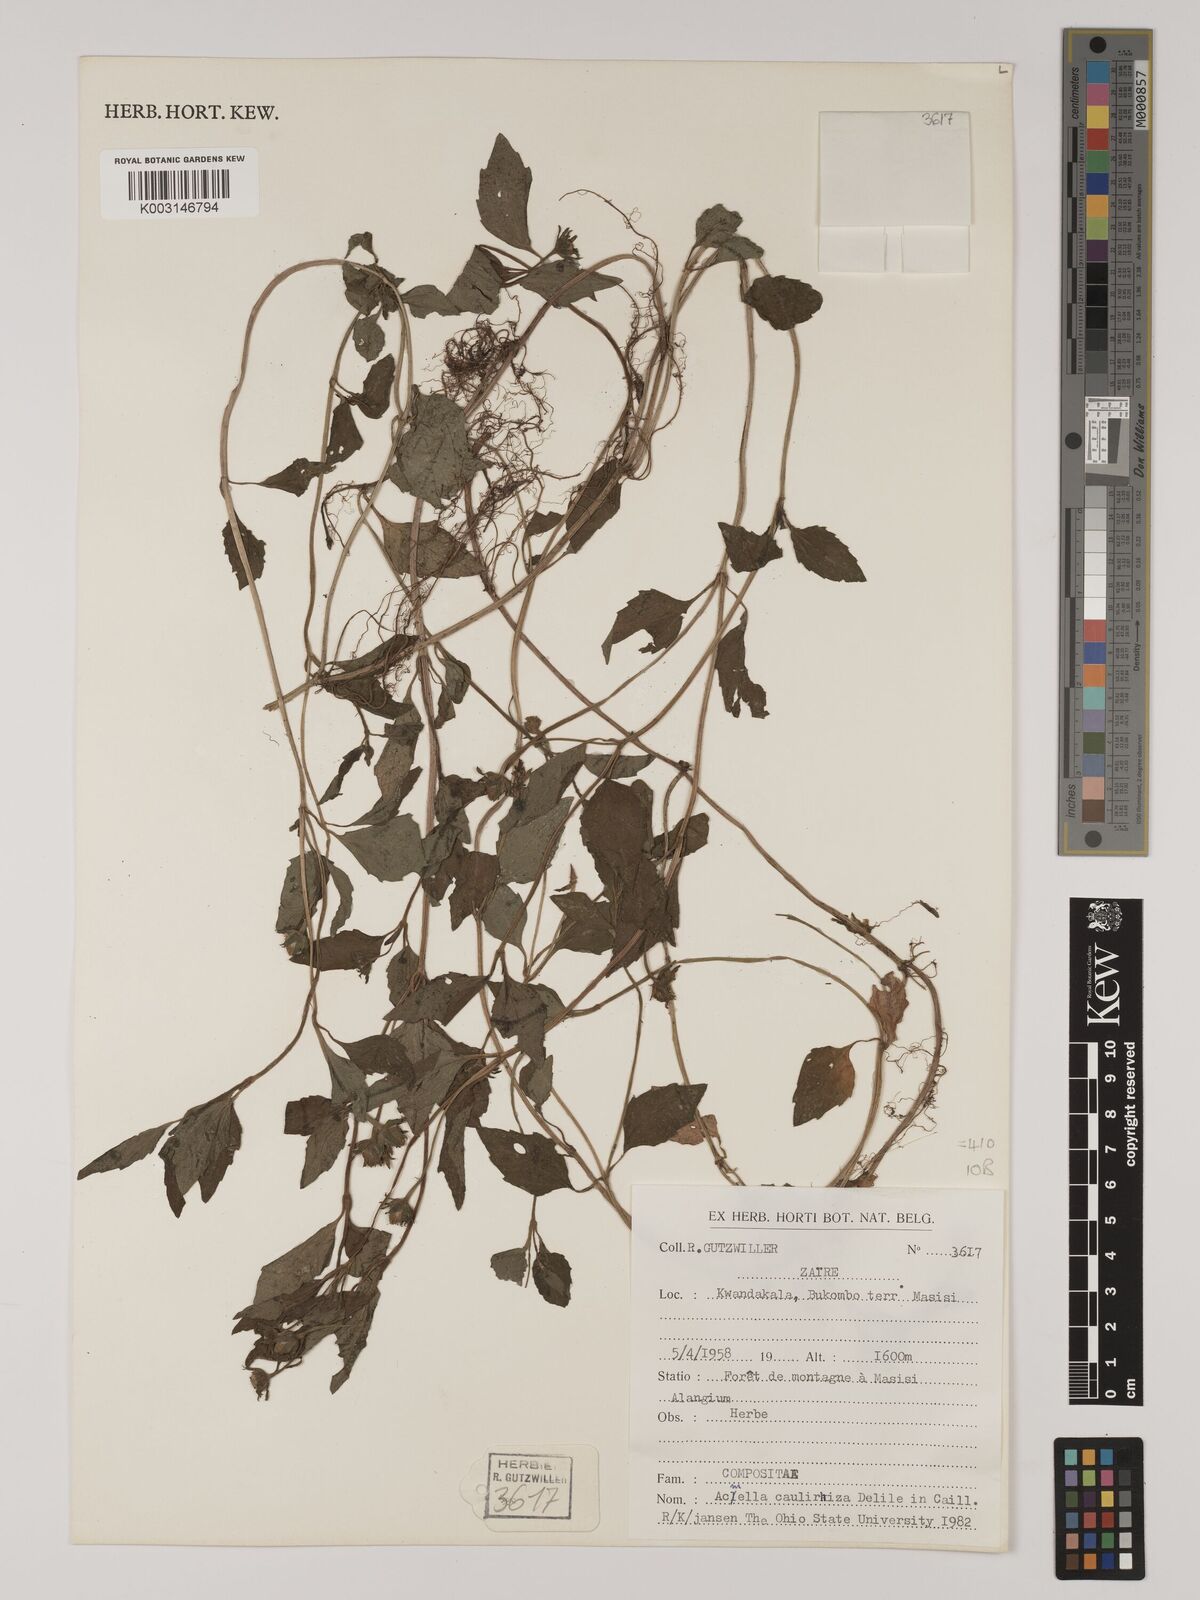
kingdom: Plantae
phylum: Tracheophyta
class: Magnoliopsida
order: Asterales
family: Asteraceae
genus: Acmella
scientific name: Acmella caulirhiza
